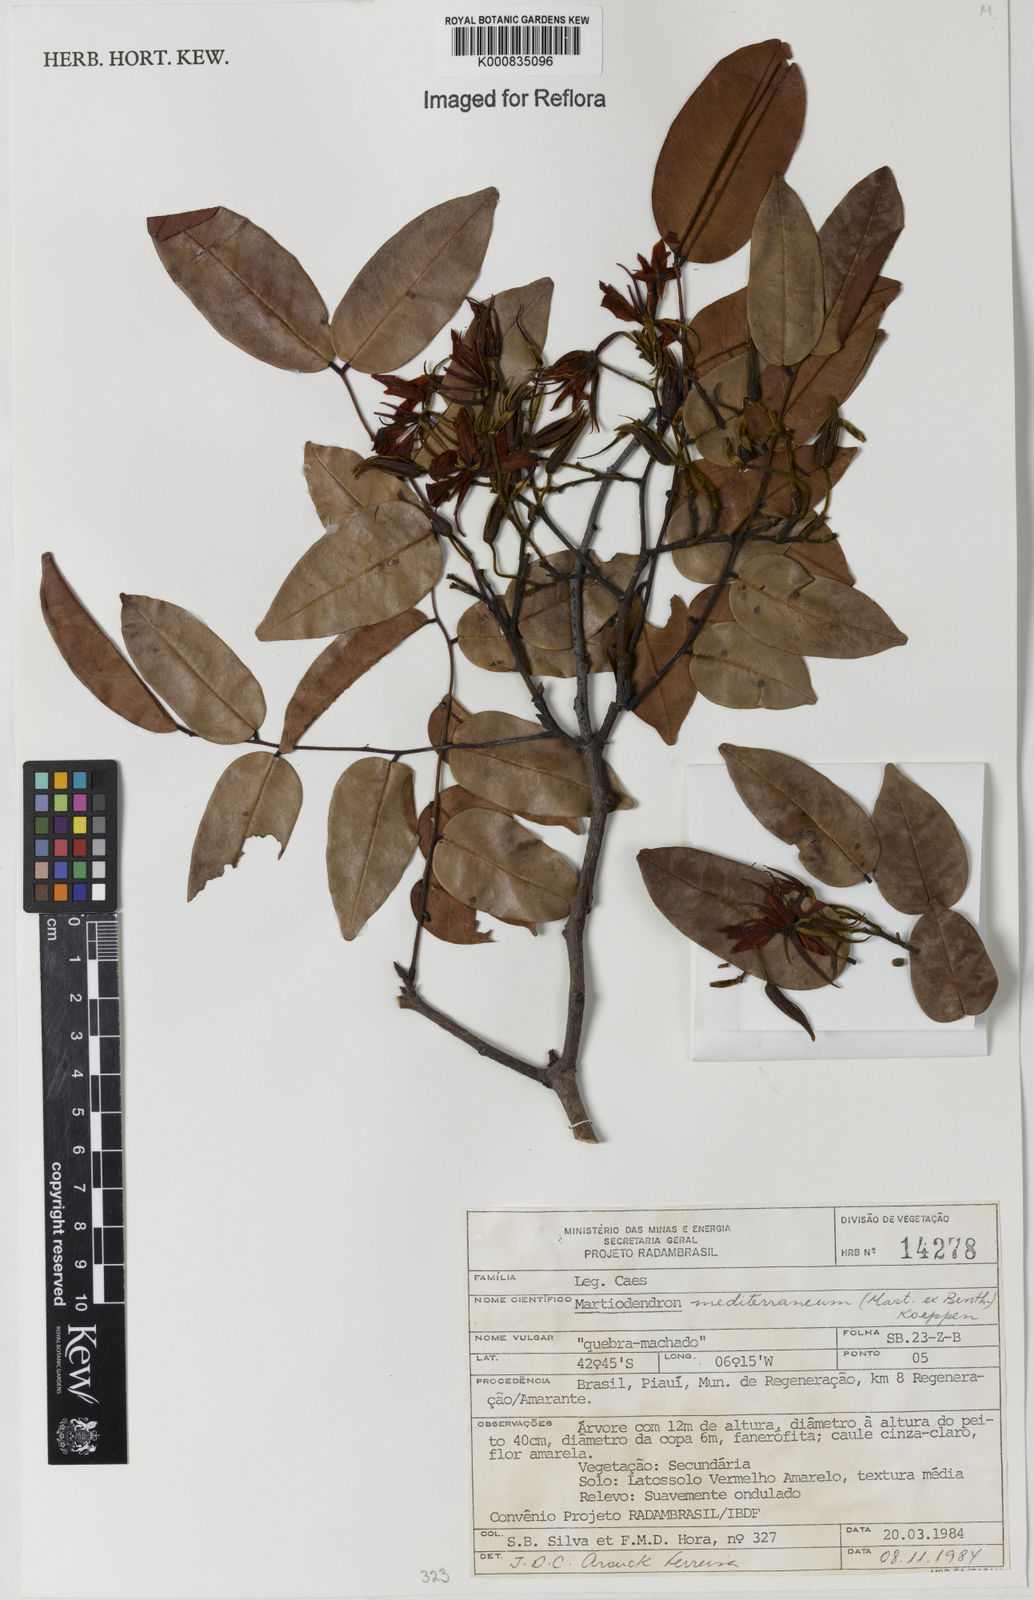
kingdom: Plantae
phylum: Tracheophyta
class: Magnoliopsida
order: Fabales
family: Fabaceae
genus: Martiodendron
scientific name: Martiodendron
